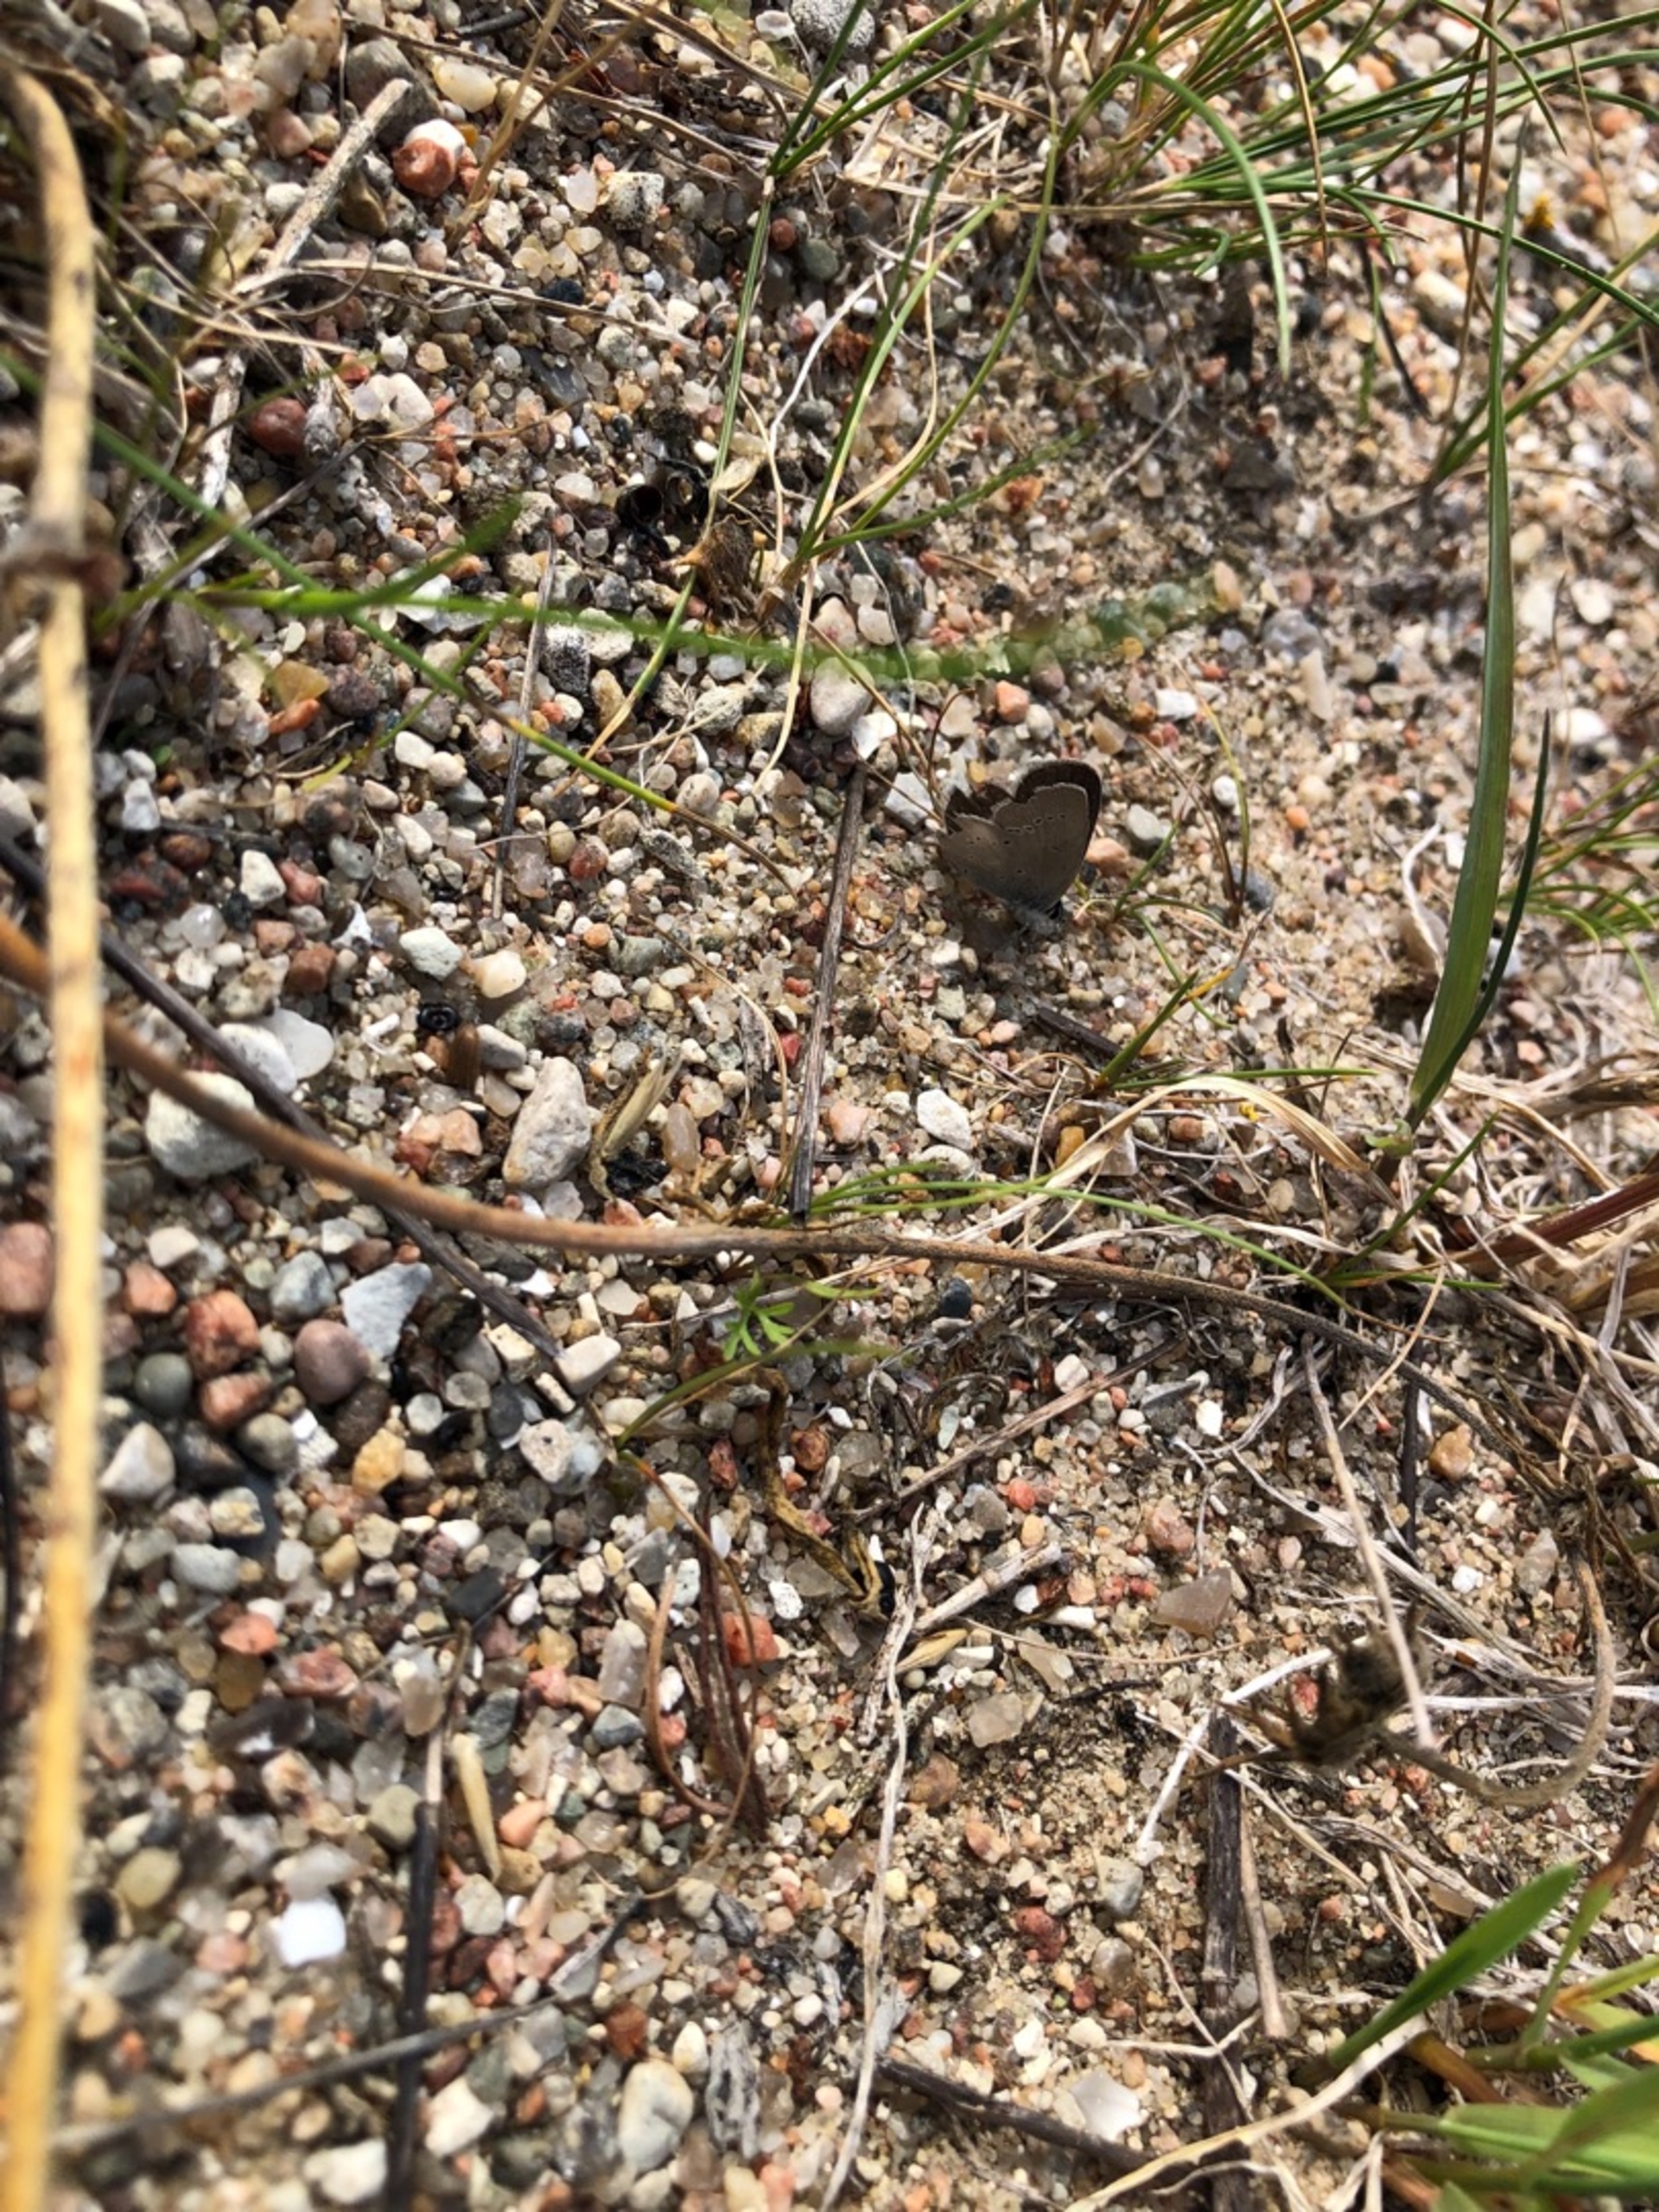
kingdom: Animalia
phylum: Arthropoda
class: Insecta
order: Lepidoptera
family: Lycaenidae
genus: Cupido
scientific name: Cupido minimus
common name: Dværgblåfugl
